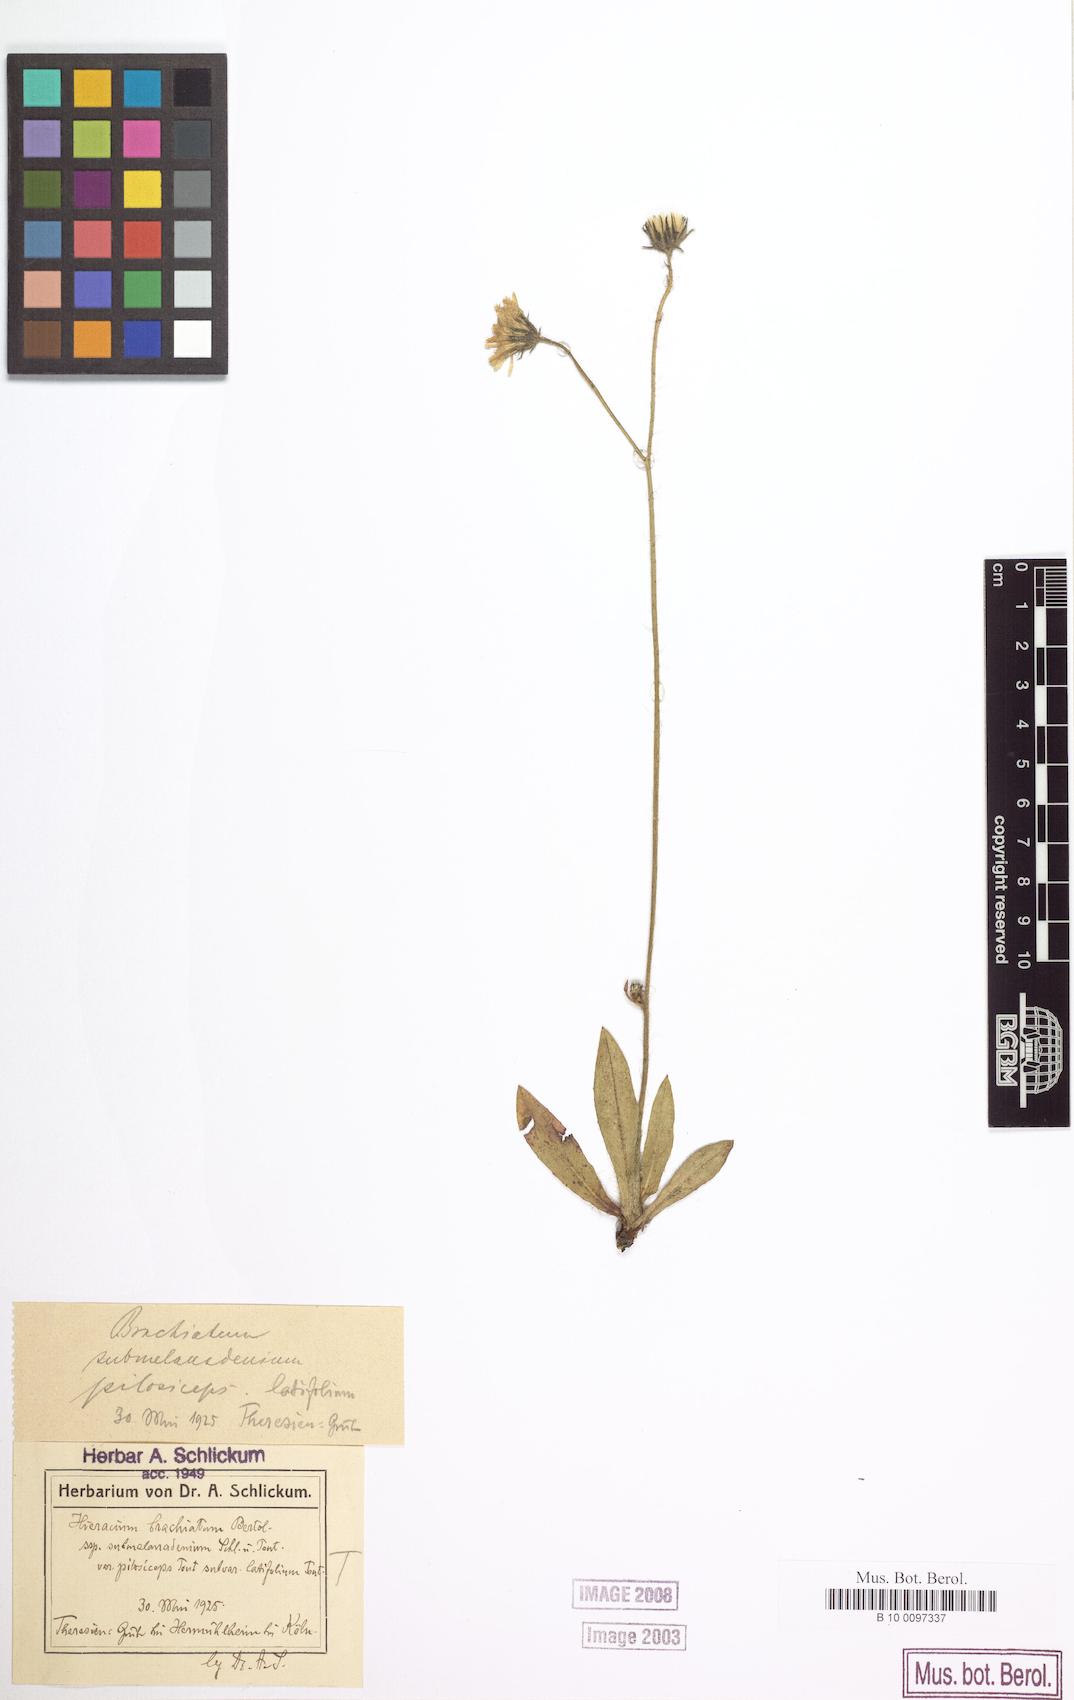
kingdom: Plantae
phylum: Tracheophyta
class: Magnoliopsida
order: Asterales
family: Asteraceae
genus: Pilosella
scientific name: Pilosella acutifolia
